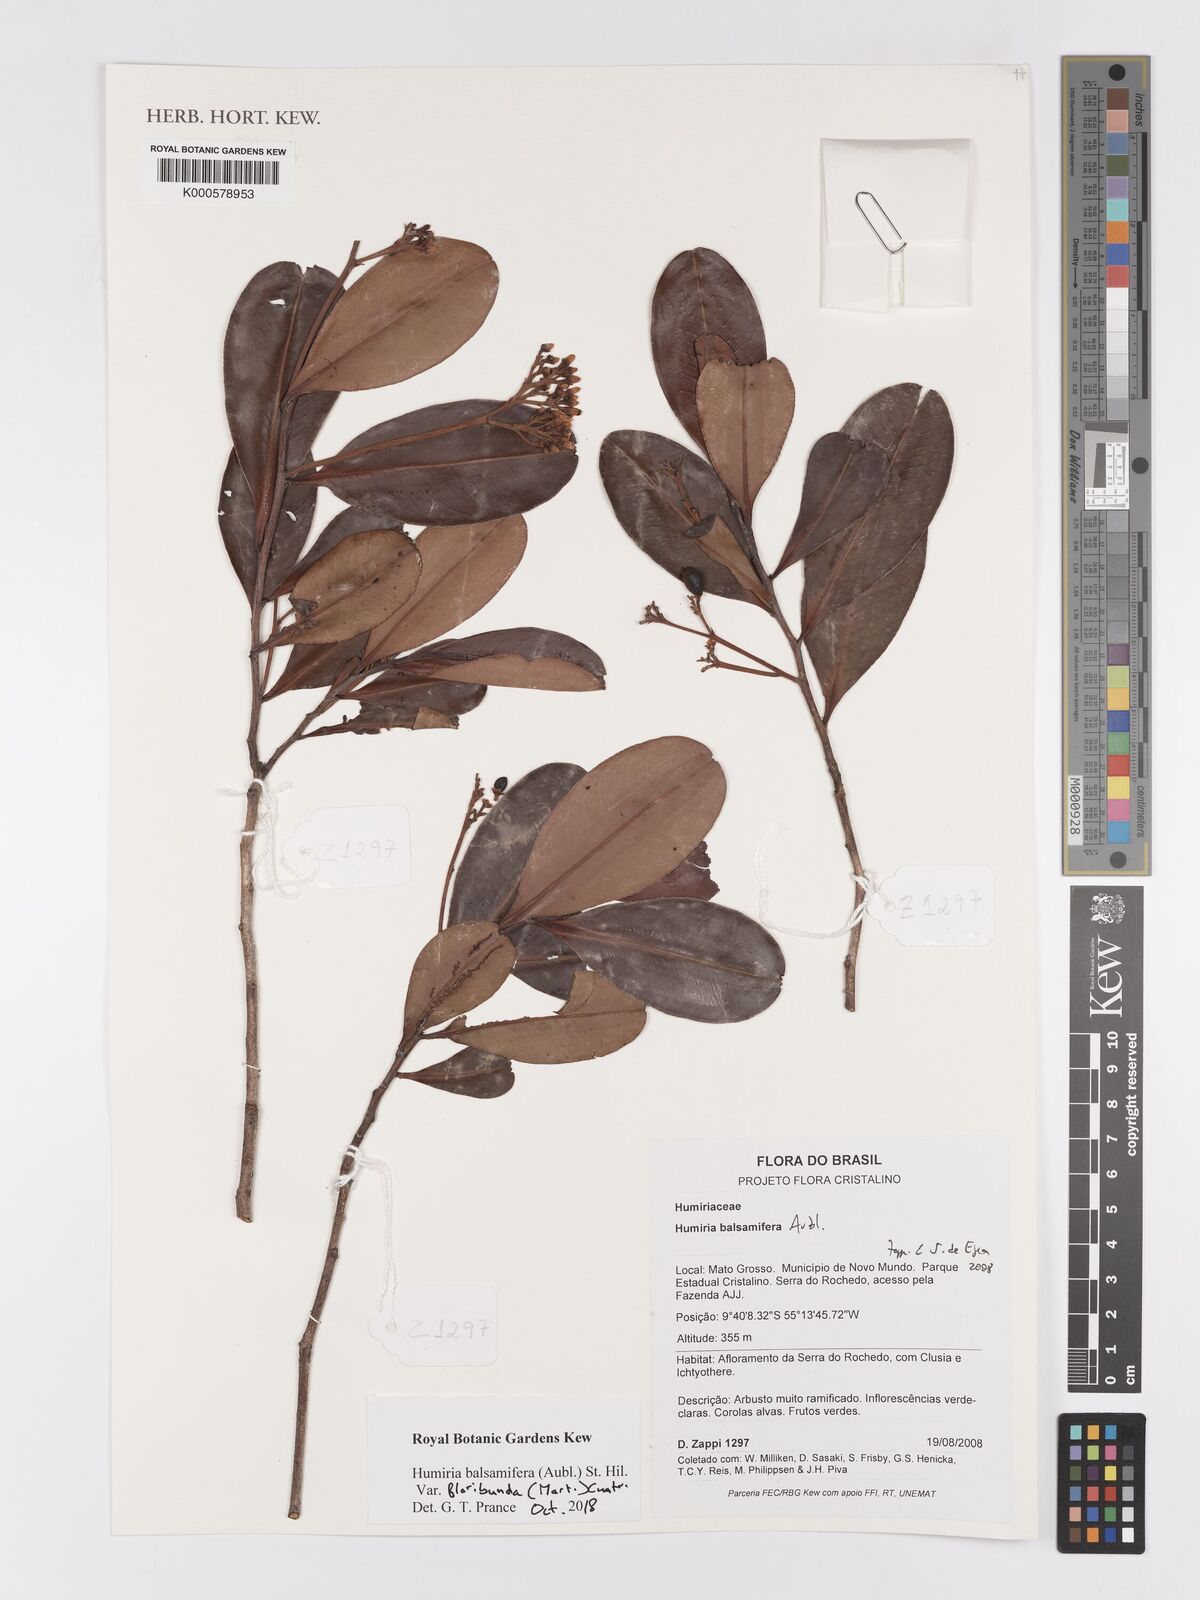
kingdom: Plantae
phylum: Tracheophyta
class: Magnoliopsida
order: Malpighiales
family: Humiriaceae
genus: Humiria
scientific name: Humiria balsamifera
